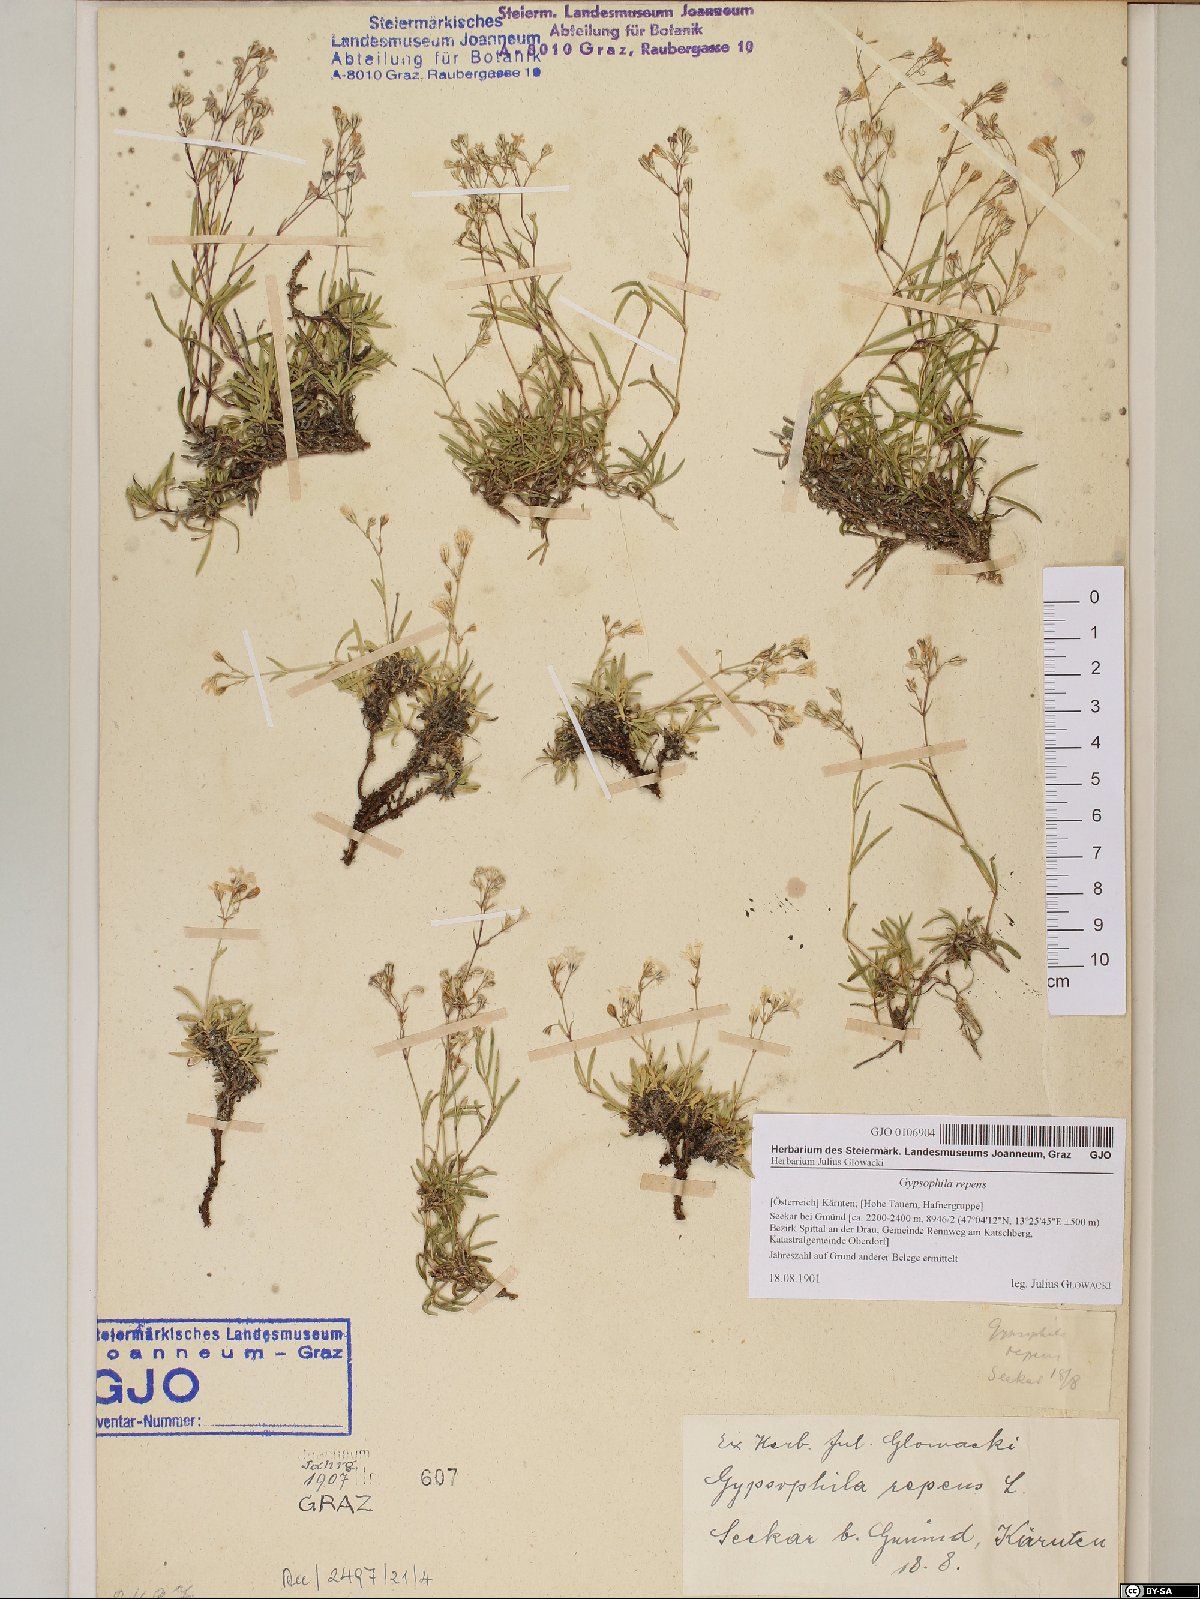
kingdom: Plantae
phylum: Tracheophyta
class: Magnoliopsida
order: Caryophyllales
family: Caryophyllaceae
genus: Gypsophila
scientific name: Gypsophila repens
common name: Creeping baby's-breath
